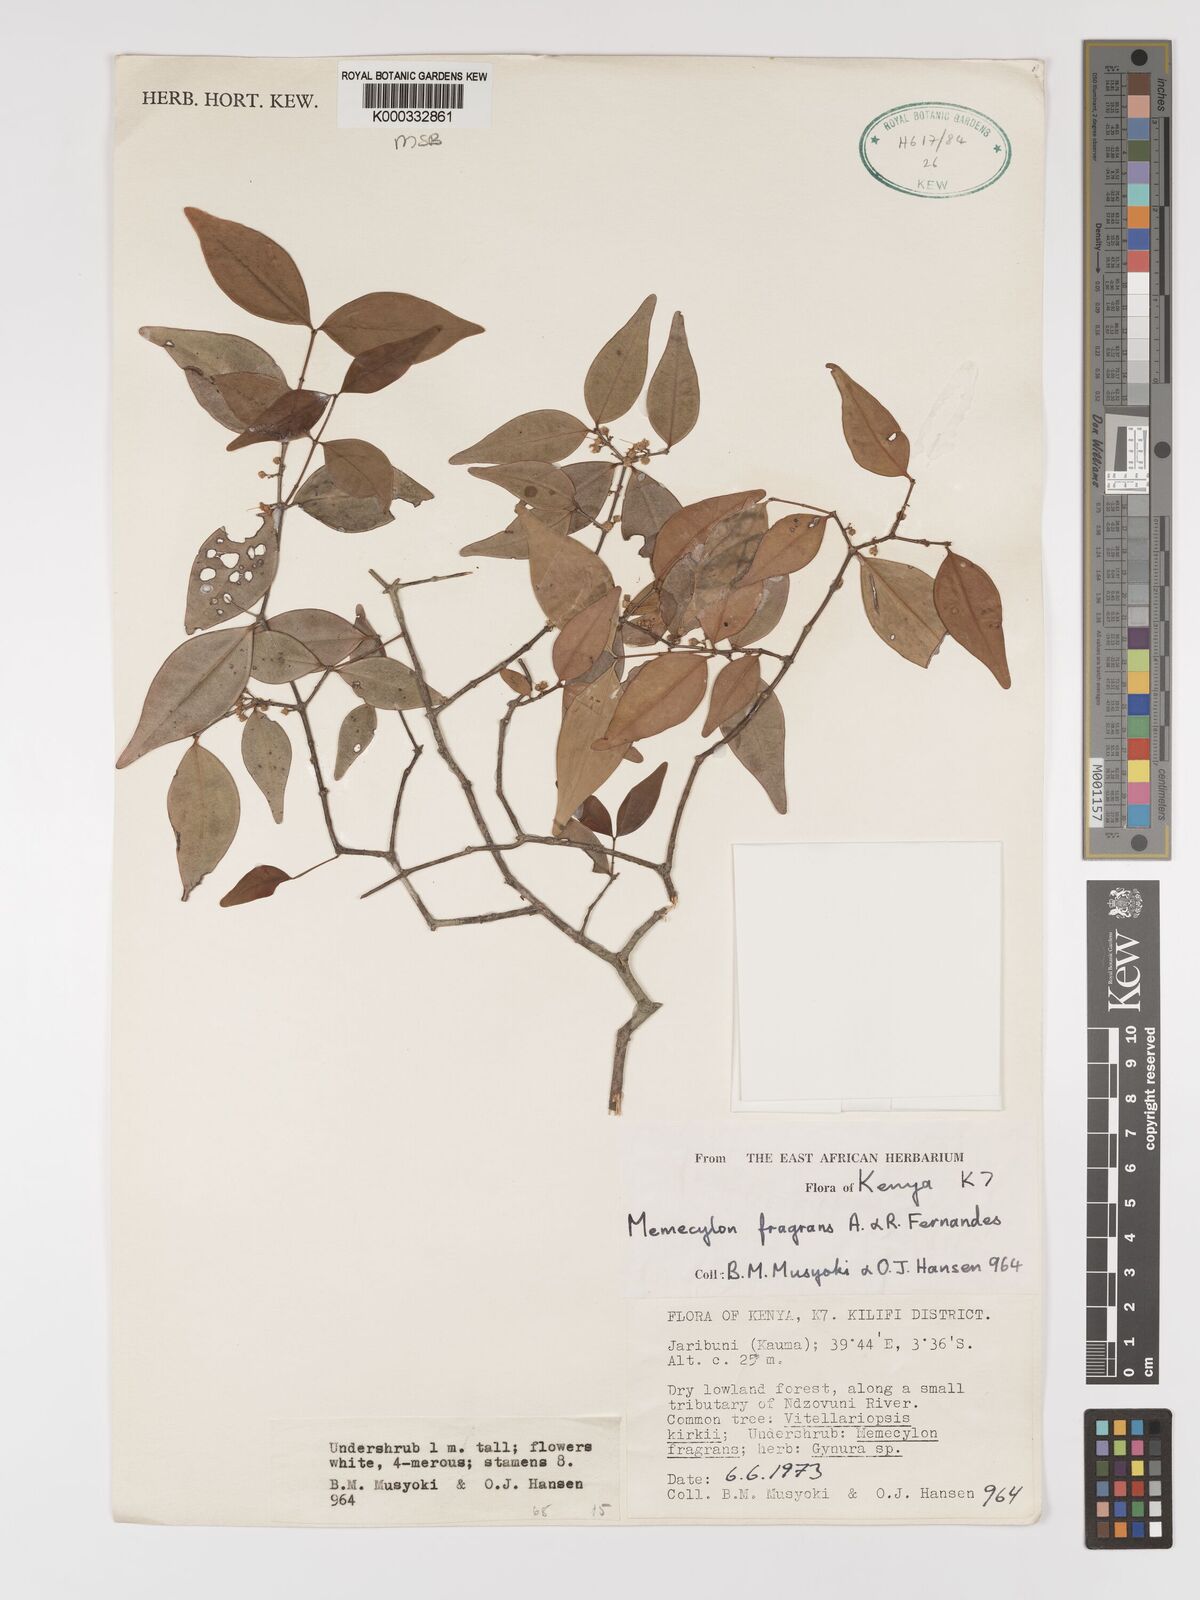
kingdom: Plantae
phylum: Tracheophyta
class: Magnoliopsida
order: Myrtales
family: Melastomataceae
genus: Memecylon
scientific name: Memecylon fragrans
